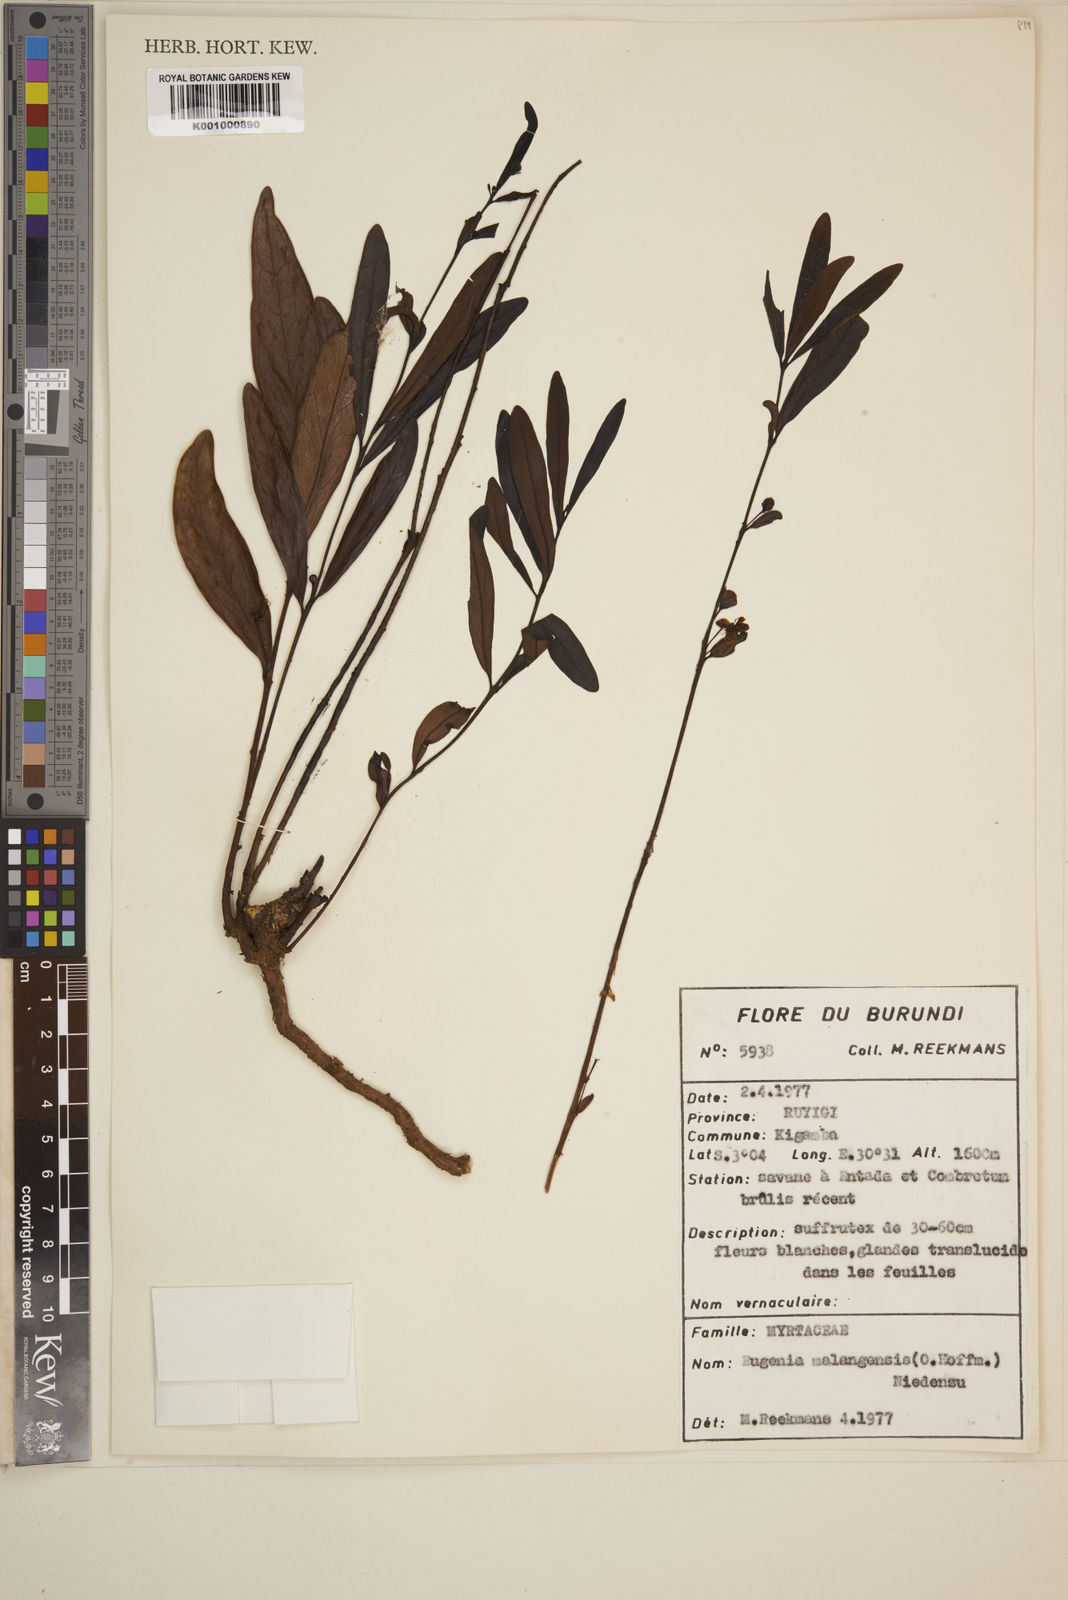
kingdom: Plantae
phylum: Tracheophyta
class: Magnoliopsida
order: Myrtales
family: Myrtaceae
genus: Eugenia
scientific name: Eugenia malangensis
